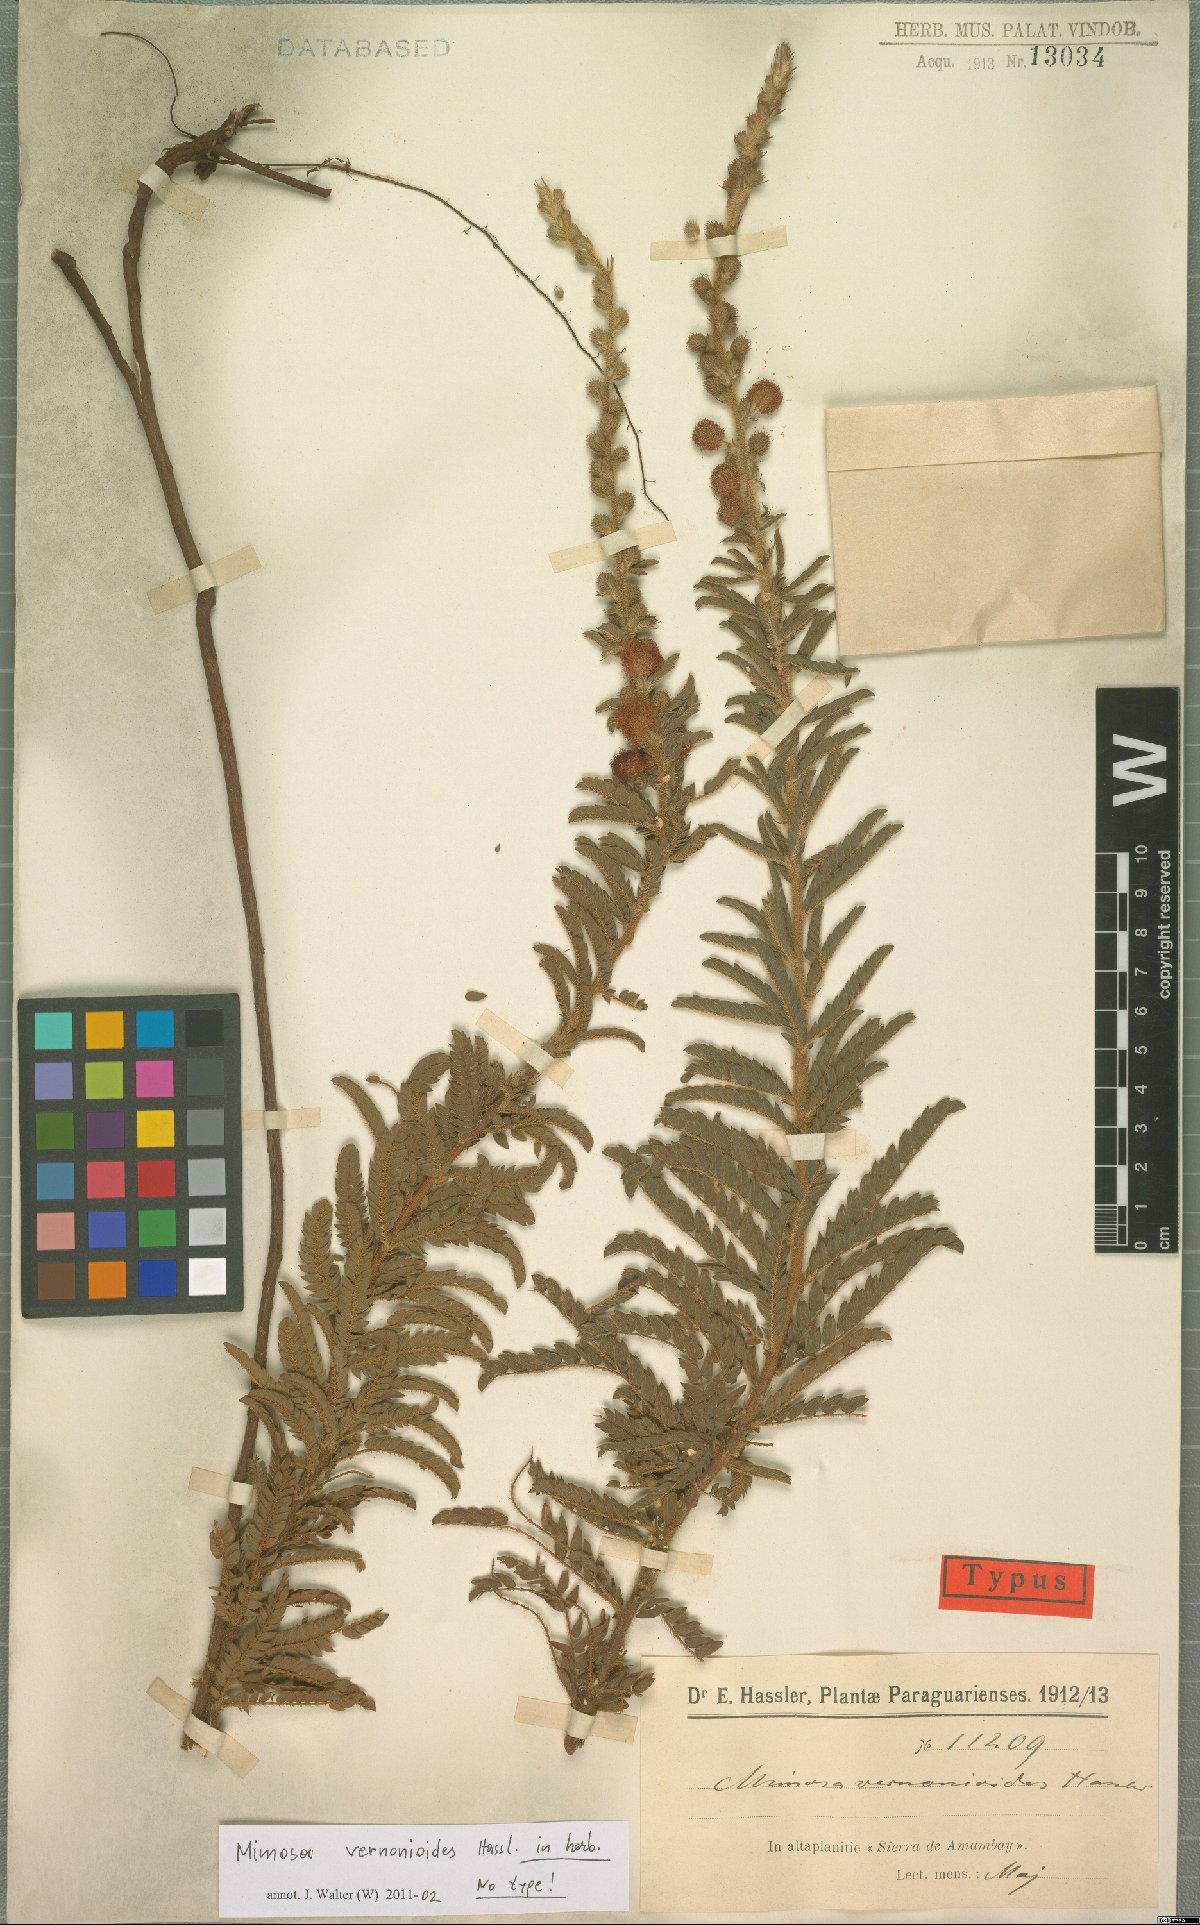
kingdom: Plantae
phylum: Tracheophyta
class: Magnoliopsida
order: Fabales
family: Fabaceae
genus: Mimosa
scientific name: Mimosa brevipes
